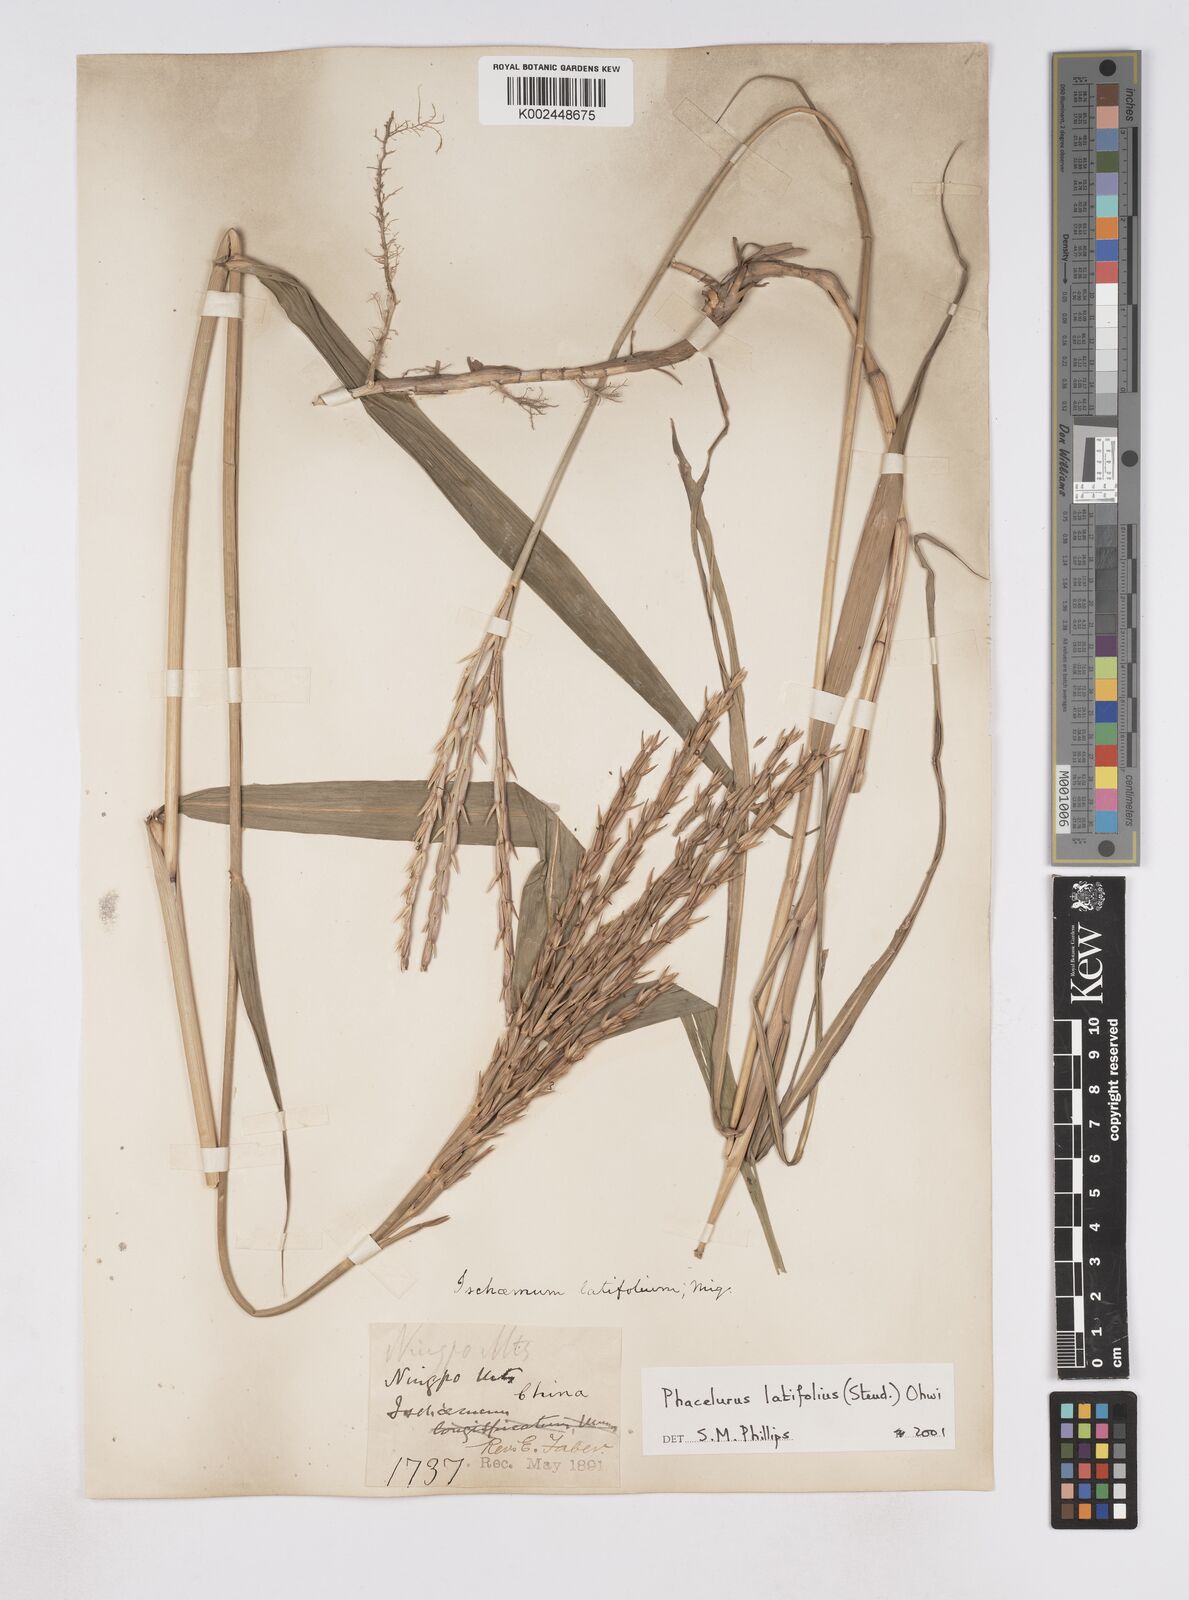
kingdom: Plantae
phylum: Tracheophyta
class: Liliopsida
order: Poales
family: Poaceae
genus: Phacelurus
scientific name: Phacelurus latifolius
